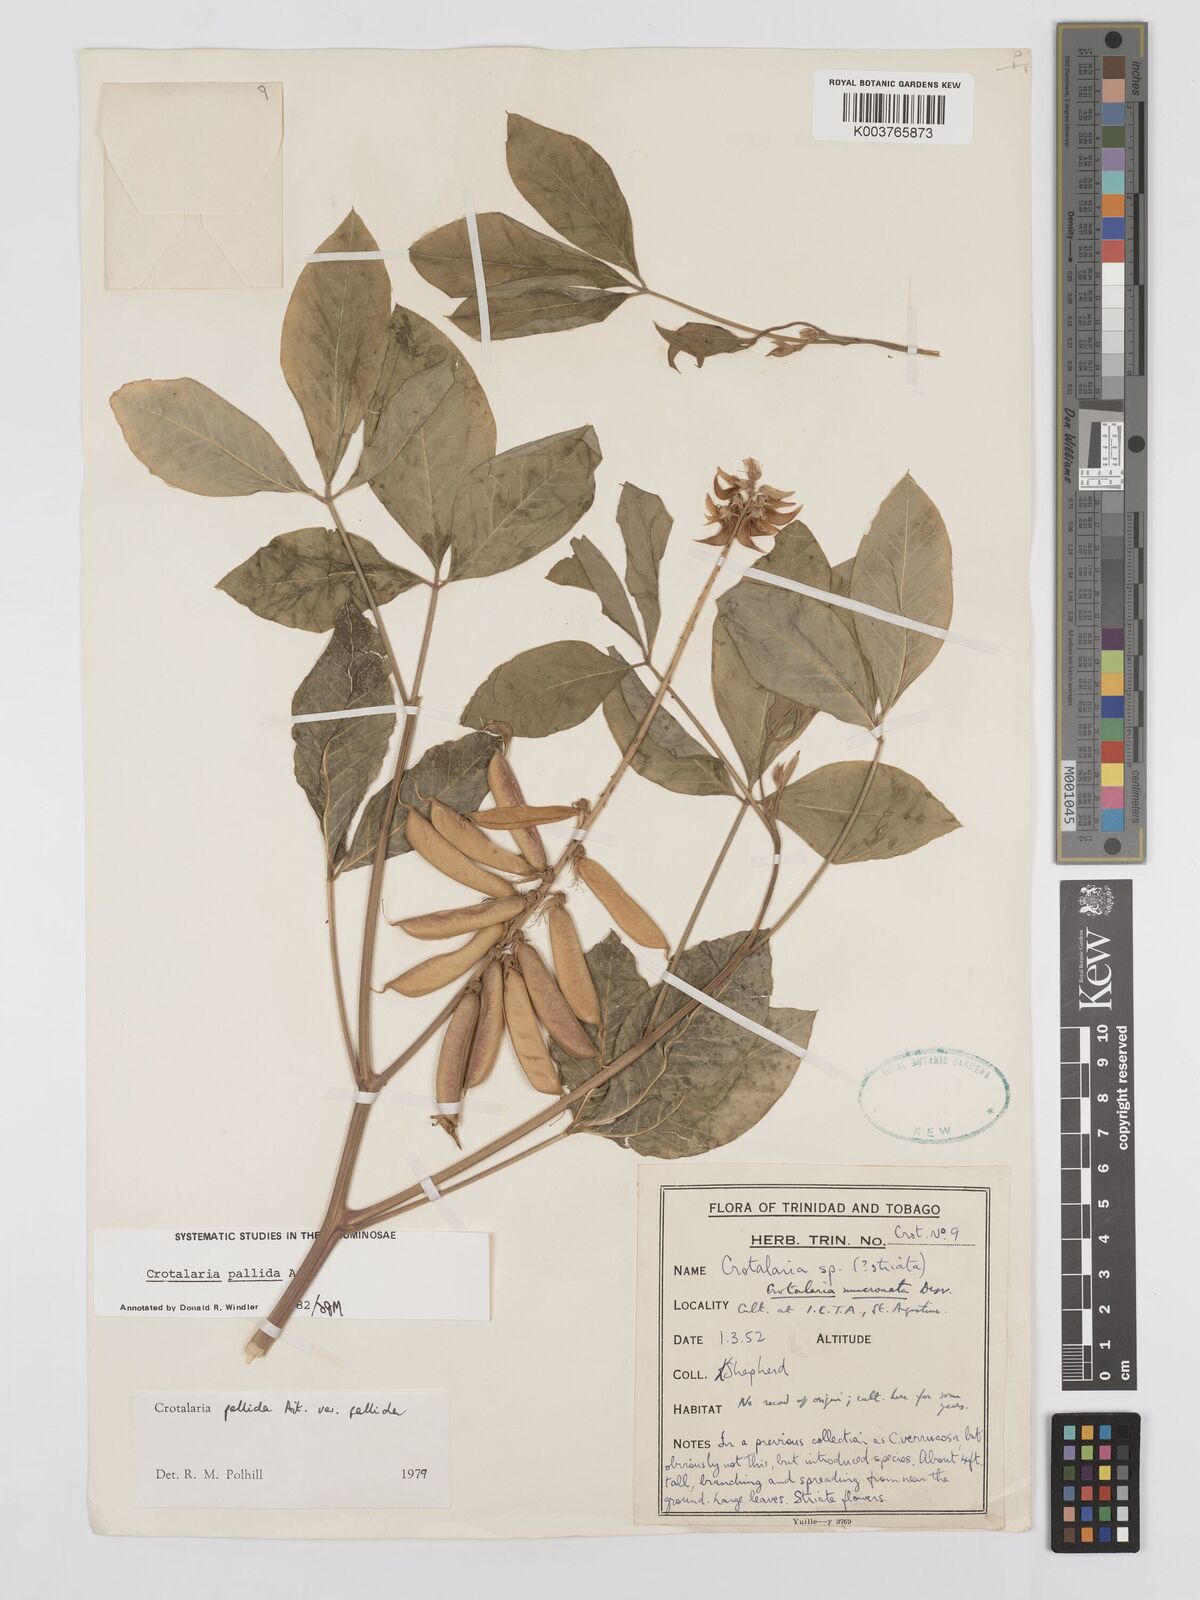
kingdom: Plantae
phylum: Tracheophyta
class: Magnoliopsida
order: Fabales
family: Fabaceae
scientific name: Fabaceae
